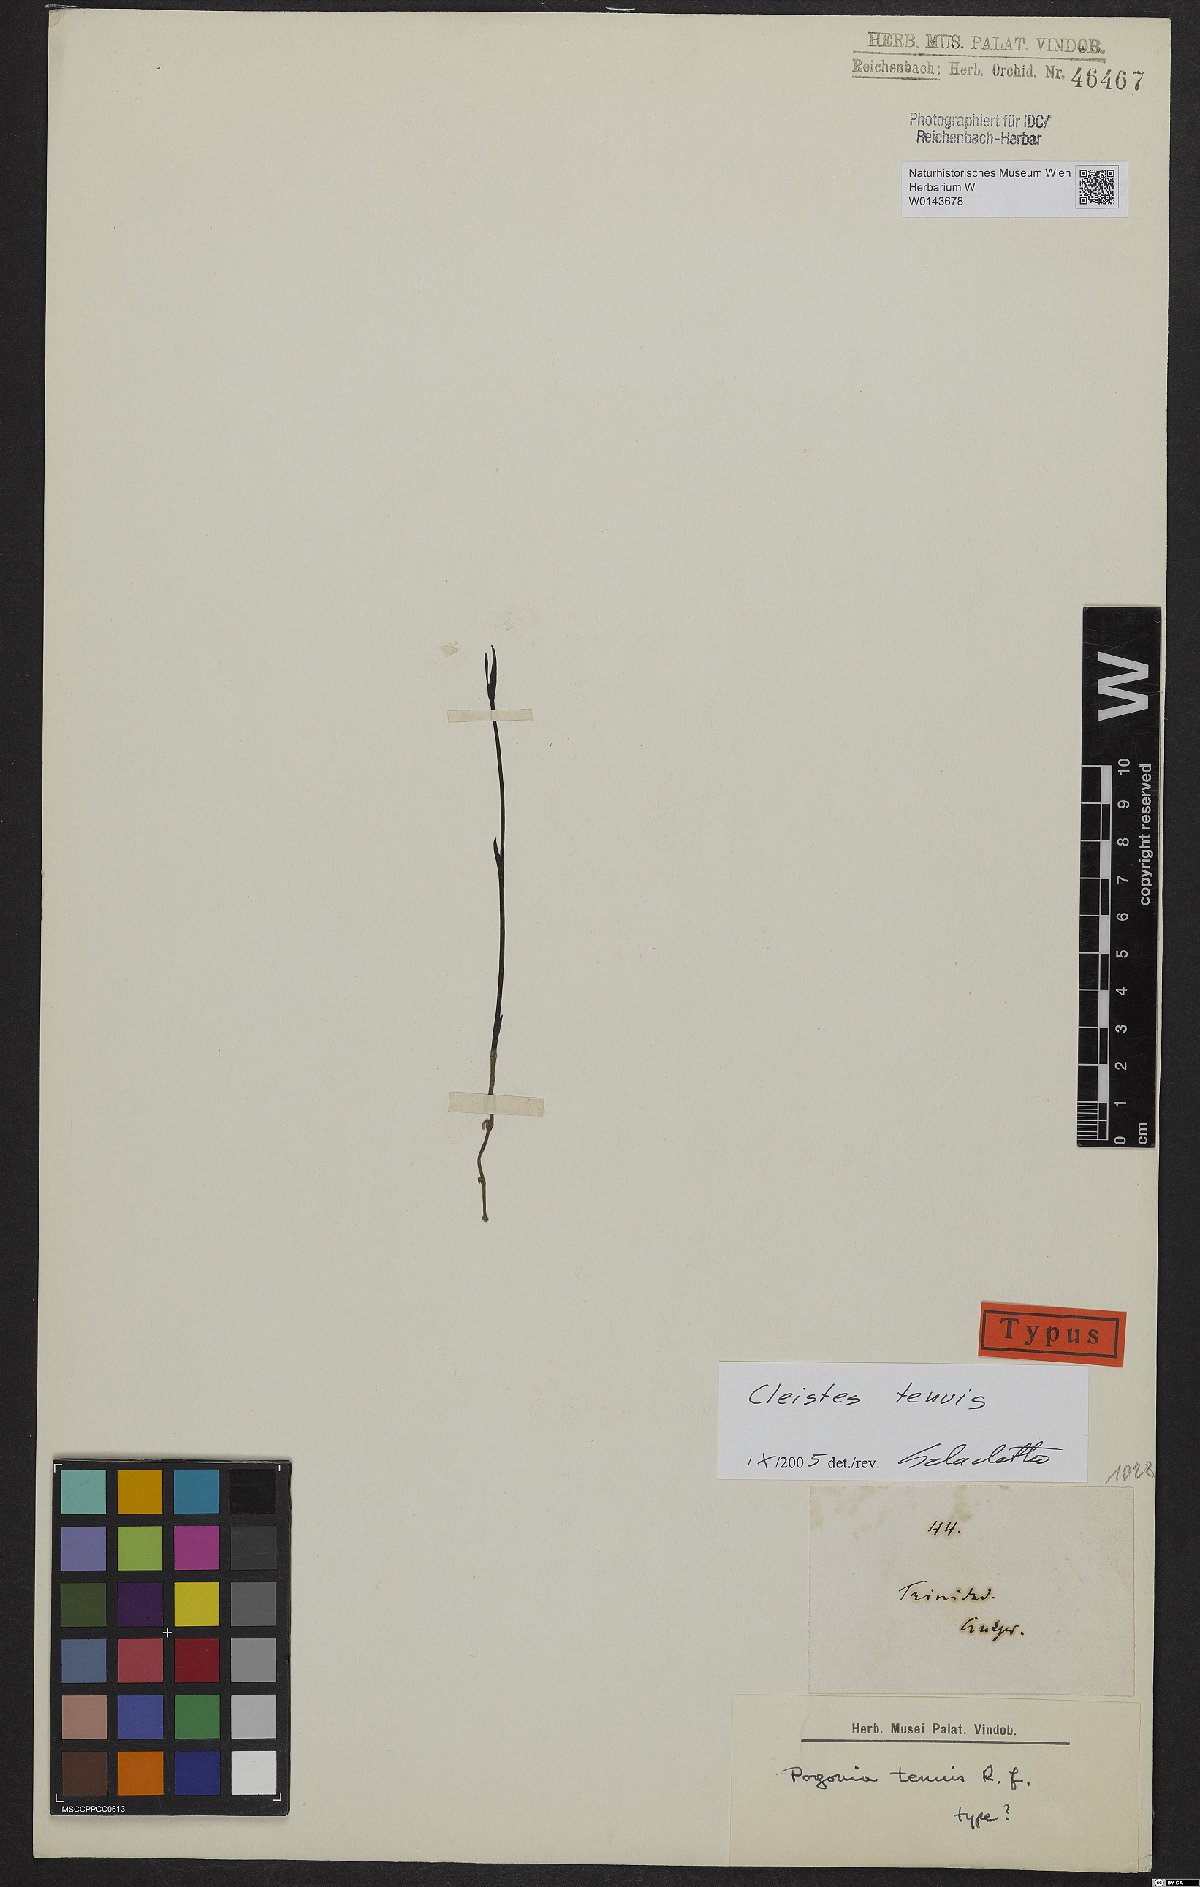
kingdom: Plantae
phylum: Tracheophyta
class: Liliopsida
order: Asparagales
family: Orchidaceae
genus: Cleistes
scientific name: Cleistes tenuis
